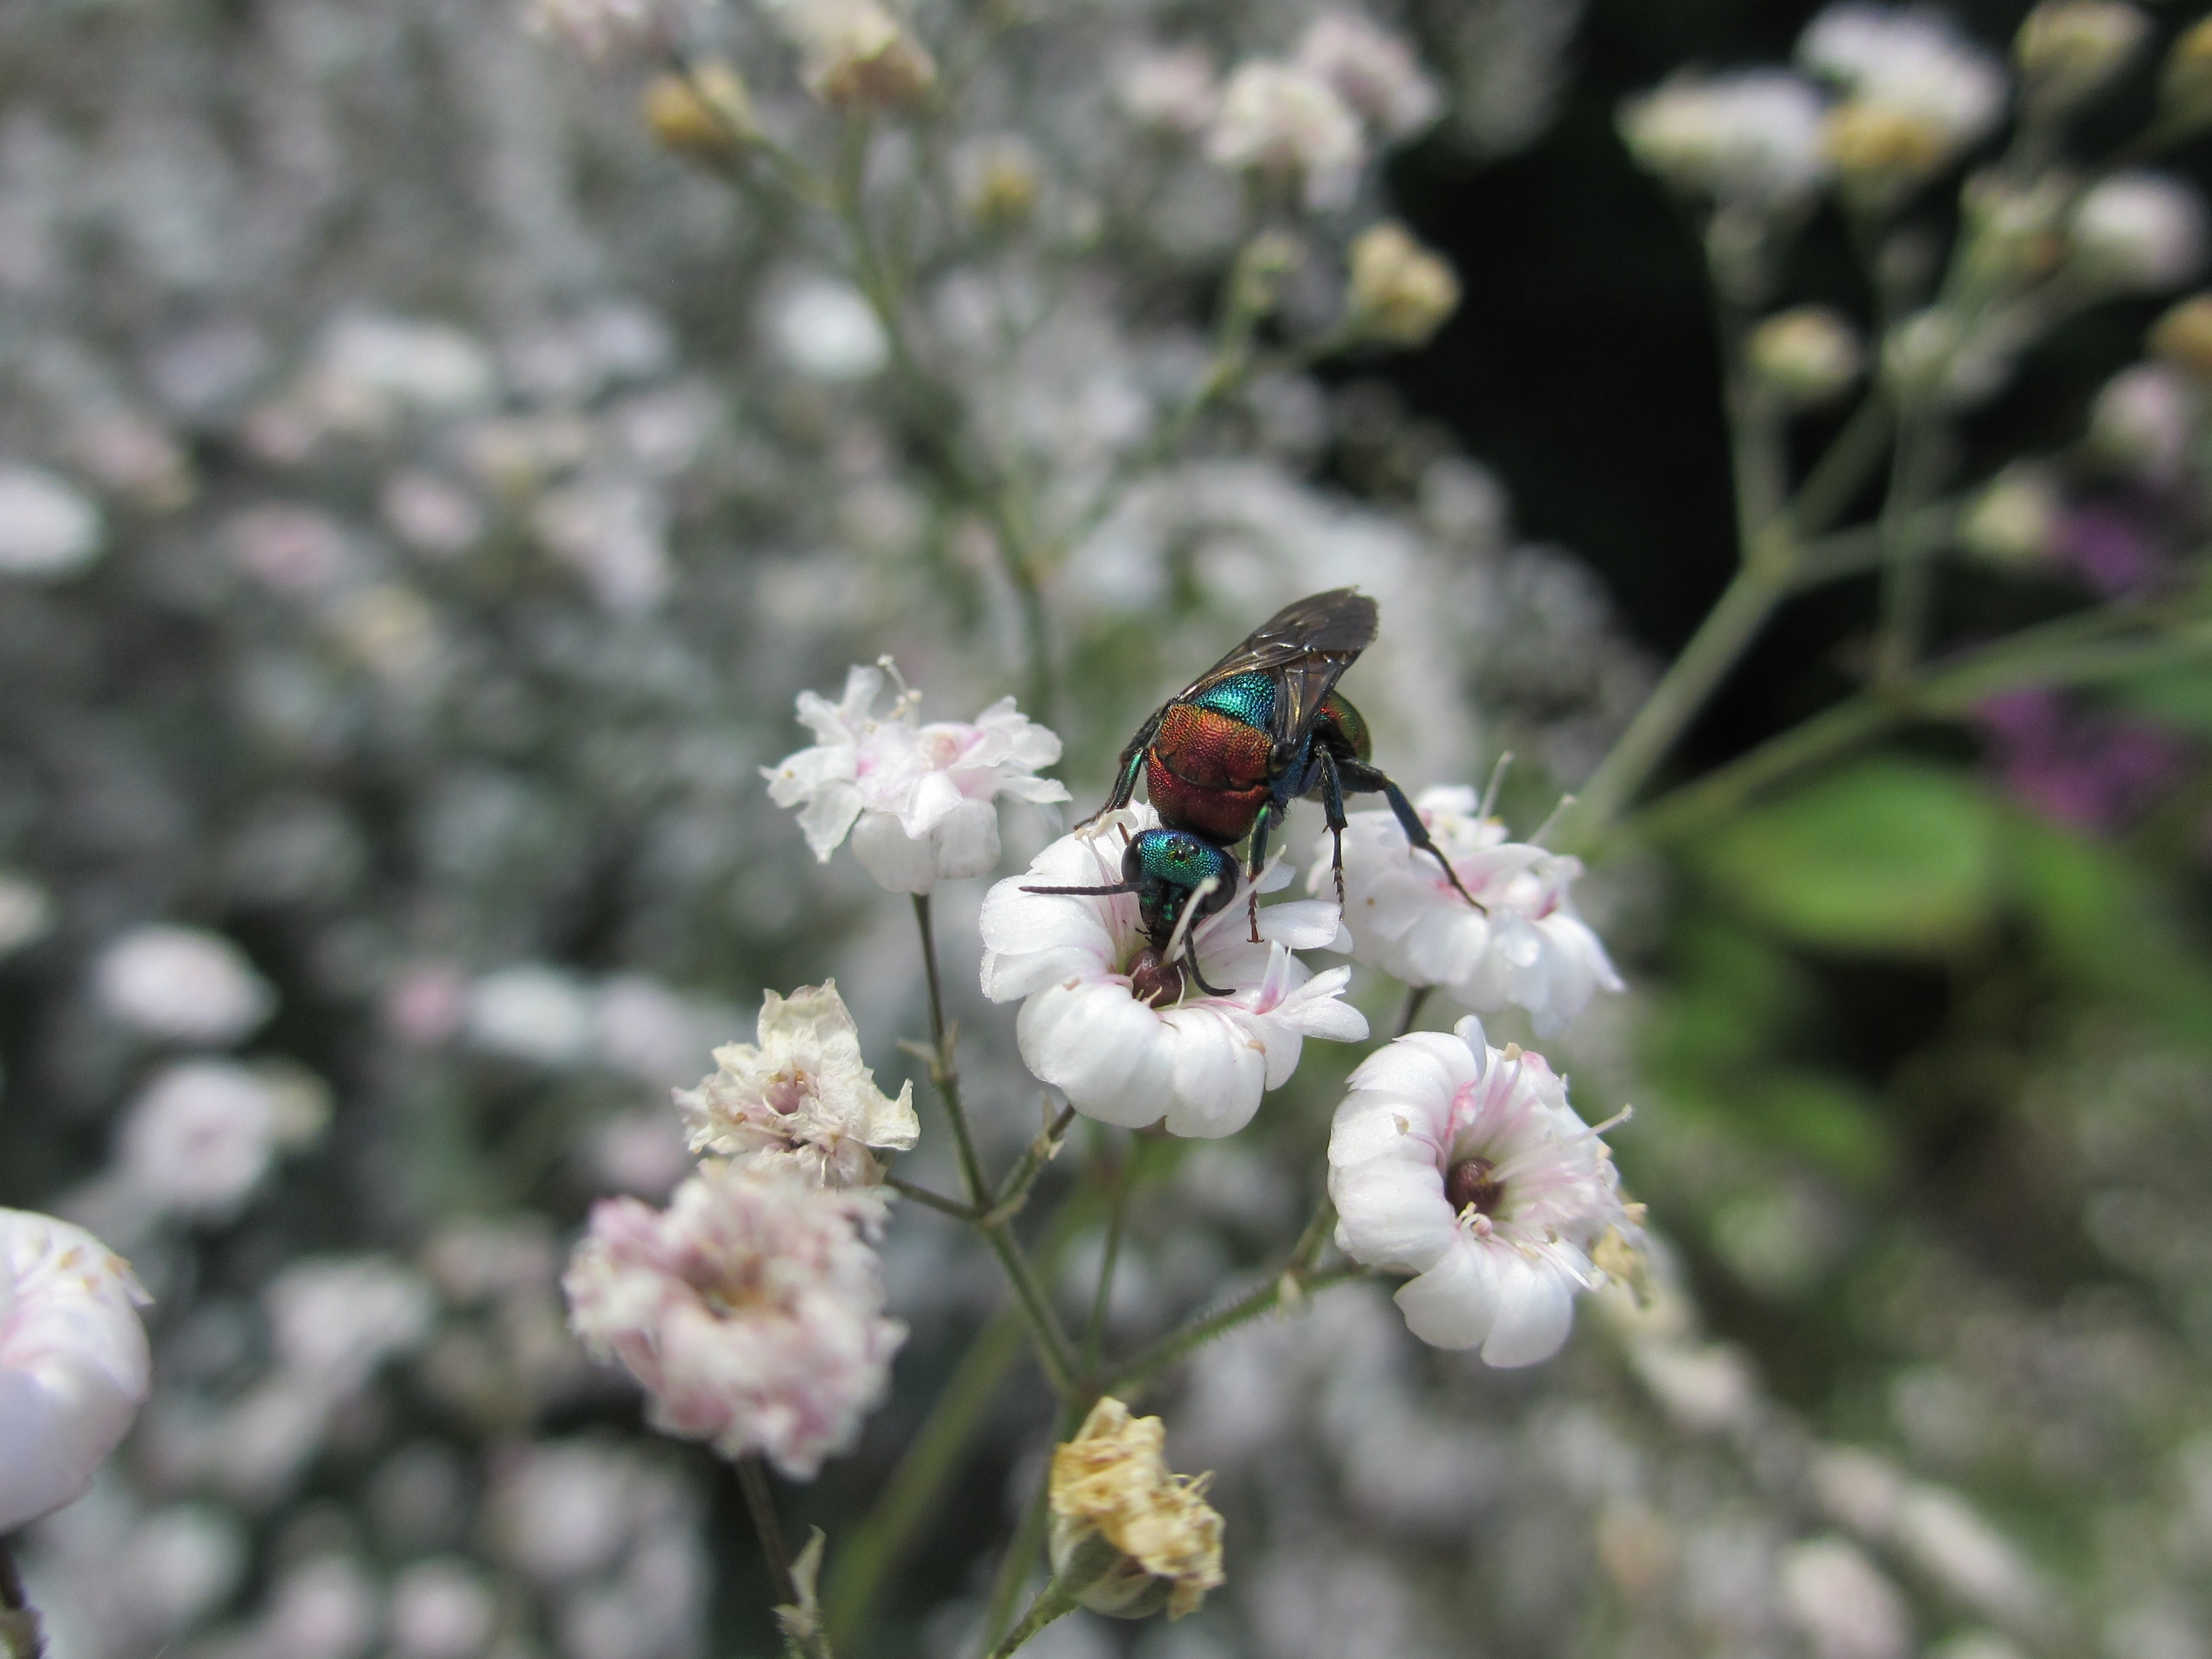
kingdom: Animalia
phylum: Arthropoda
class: Insecta
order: Hymenoptera
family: Chrysididae
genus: Hedychrum
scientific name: Hedychrum
